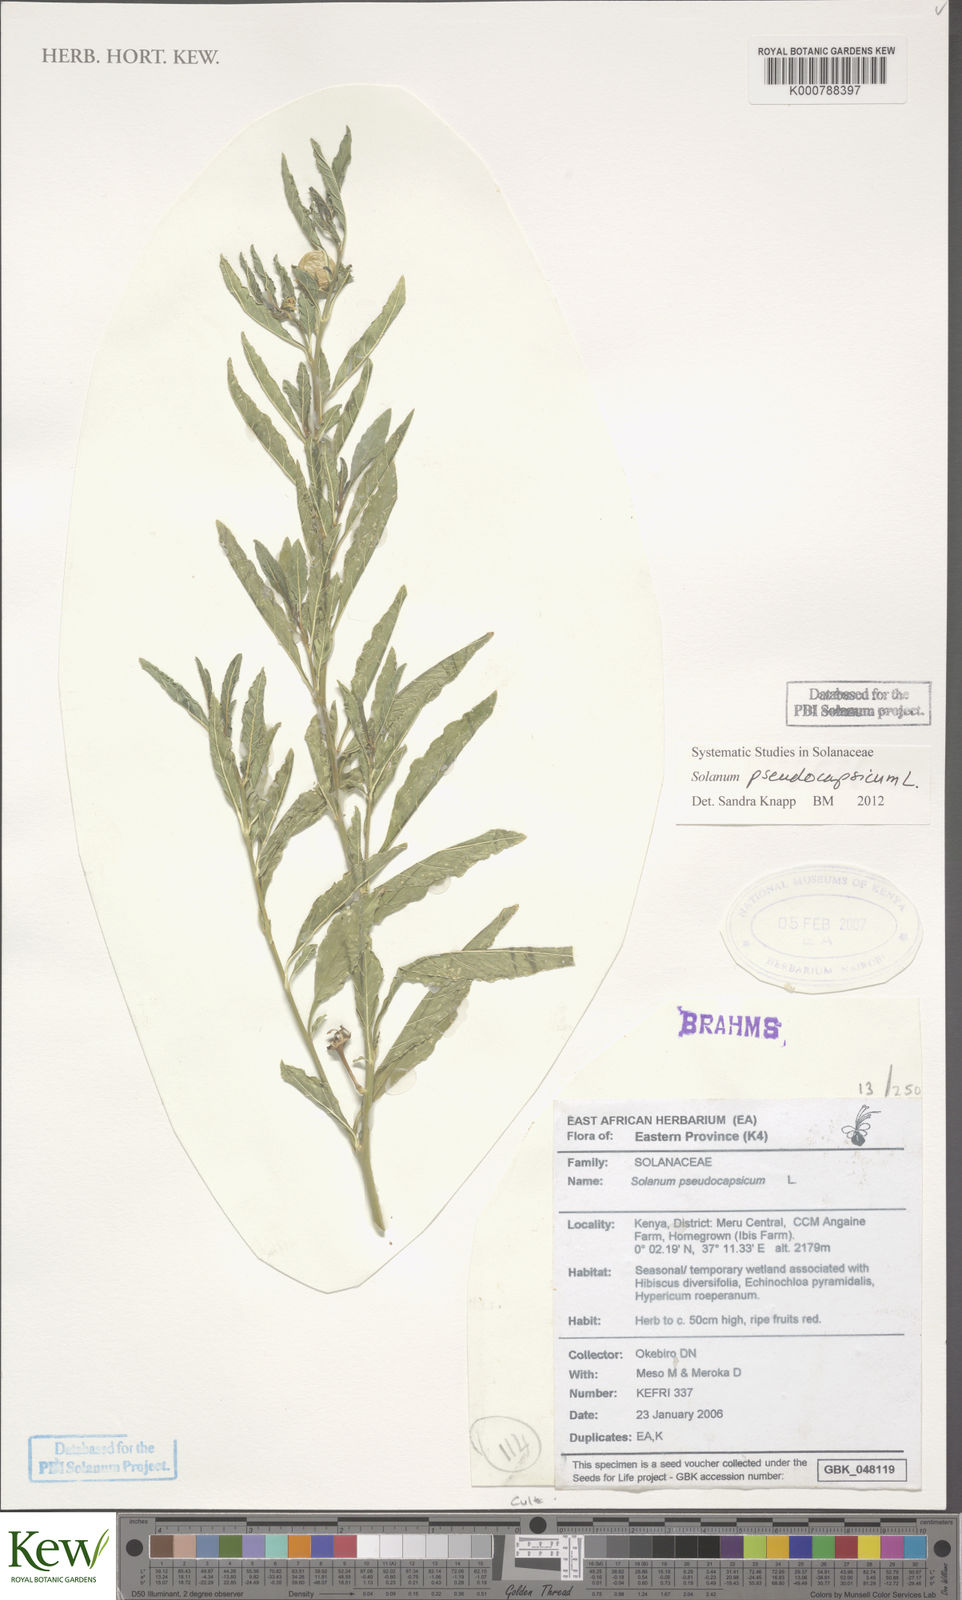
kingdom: Plantae
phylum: Tracheophyta
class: Magnoliopsida
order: Solanales
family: Solanaceae
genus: Solanum
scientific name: Solanum pseudocapsicum
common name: Jerusalem cherry
